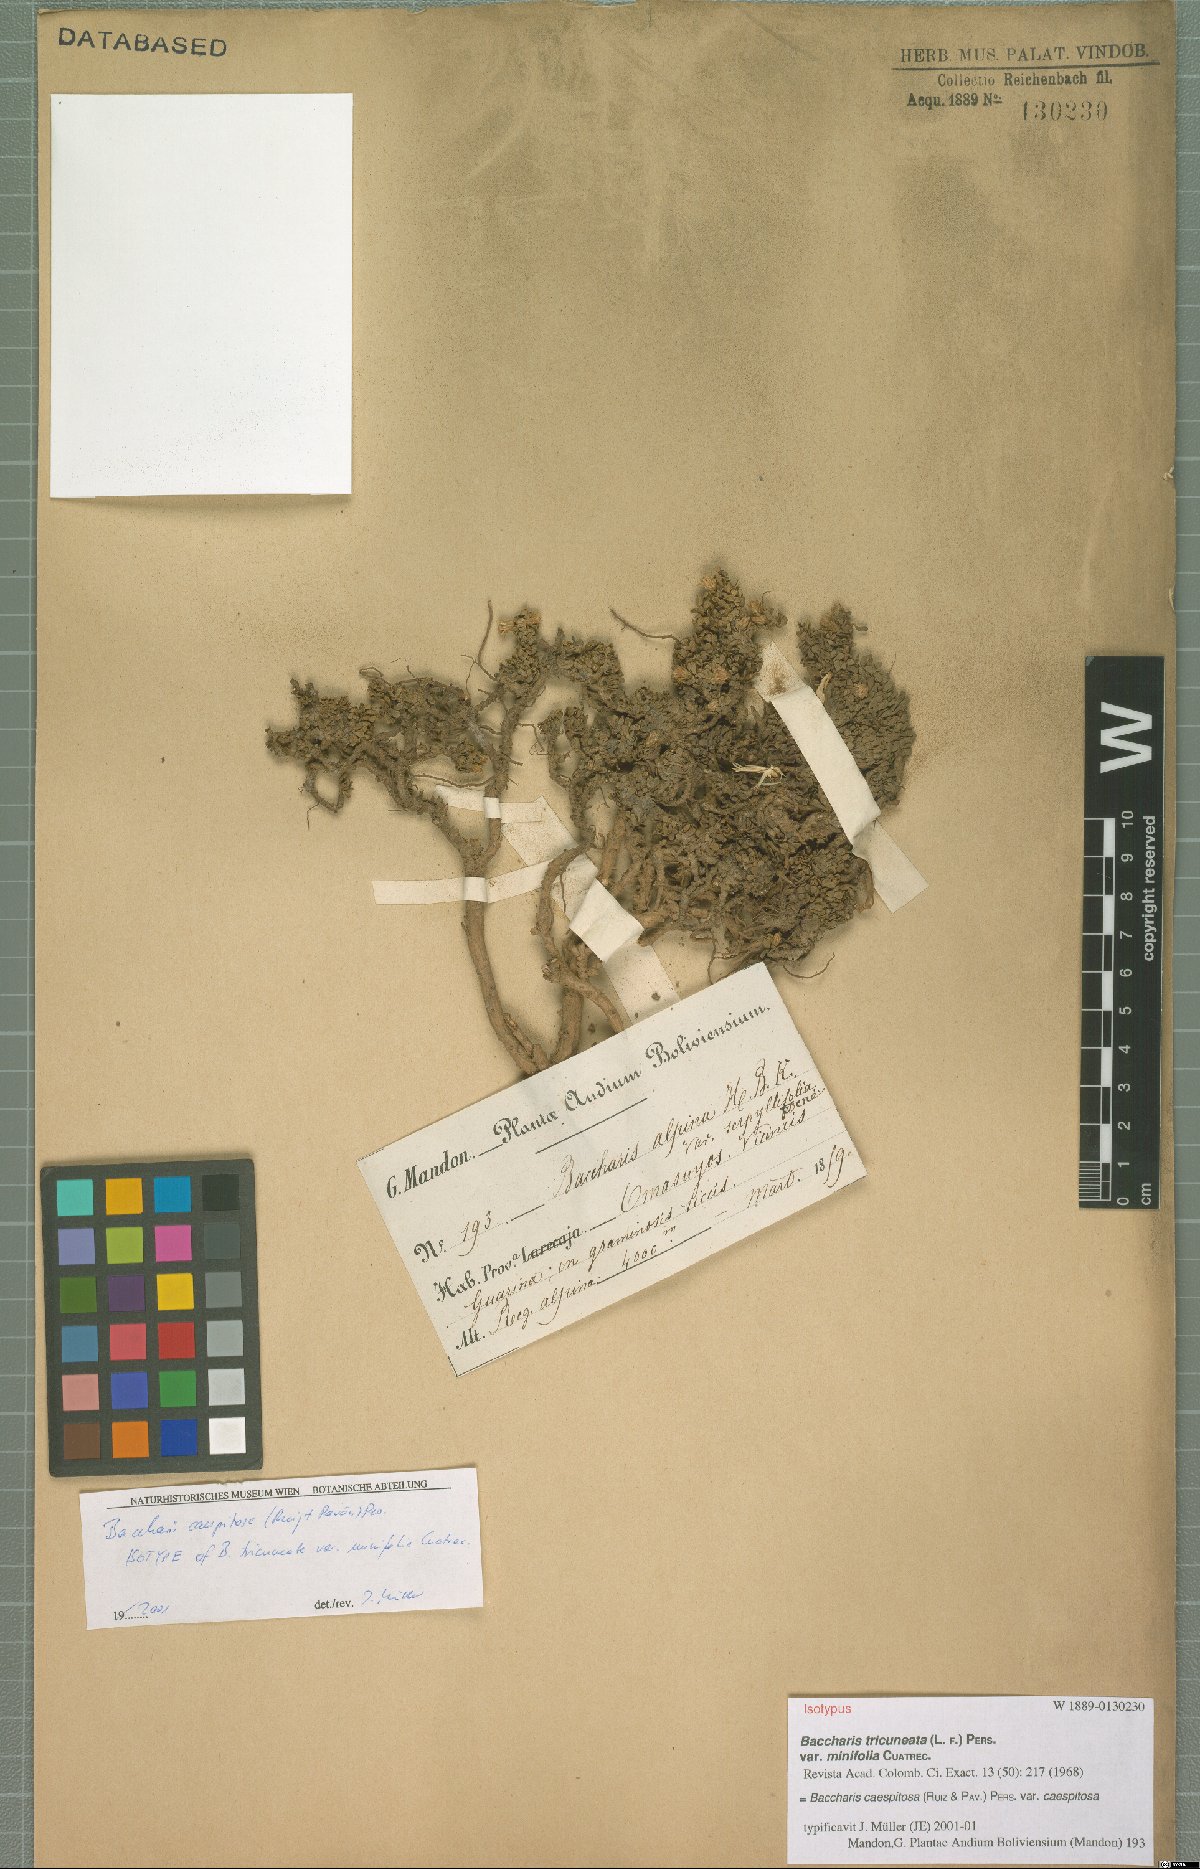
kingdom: Plantae
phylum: Tracheophyta
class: Magnoliopsida
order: Asterales
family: Asteraceae
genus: Baccharis
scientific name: Baccharis caespitosa
